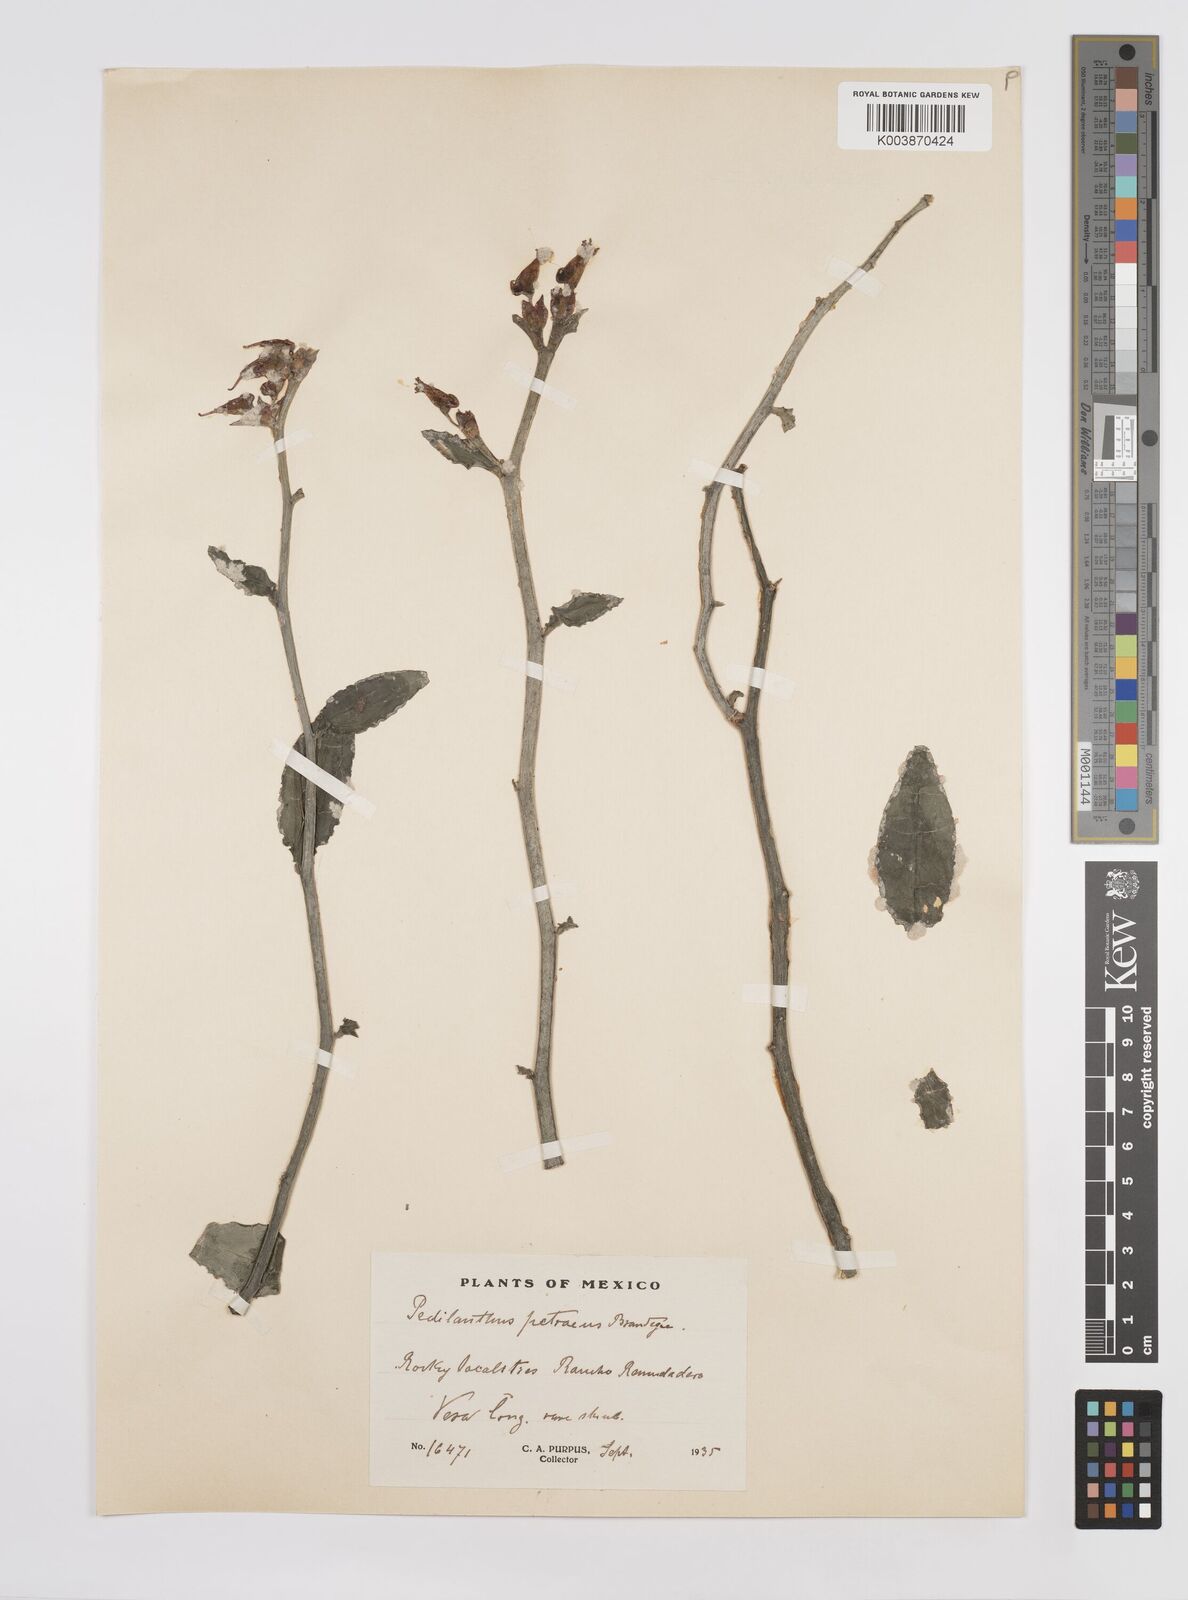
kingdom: Plantae
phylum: Tracheophyta
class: Magnoliopsida
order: Malpighiales
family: Euphorbiaceae
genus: Euphorbia
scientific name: Euphorbia tithymaloides
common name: Slipperplant
